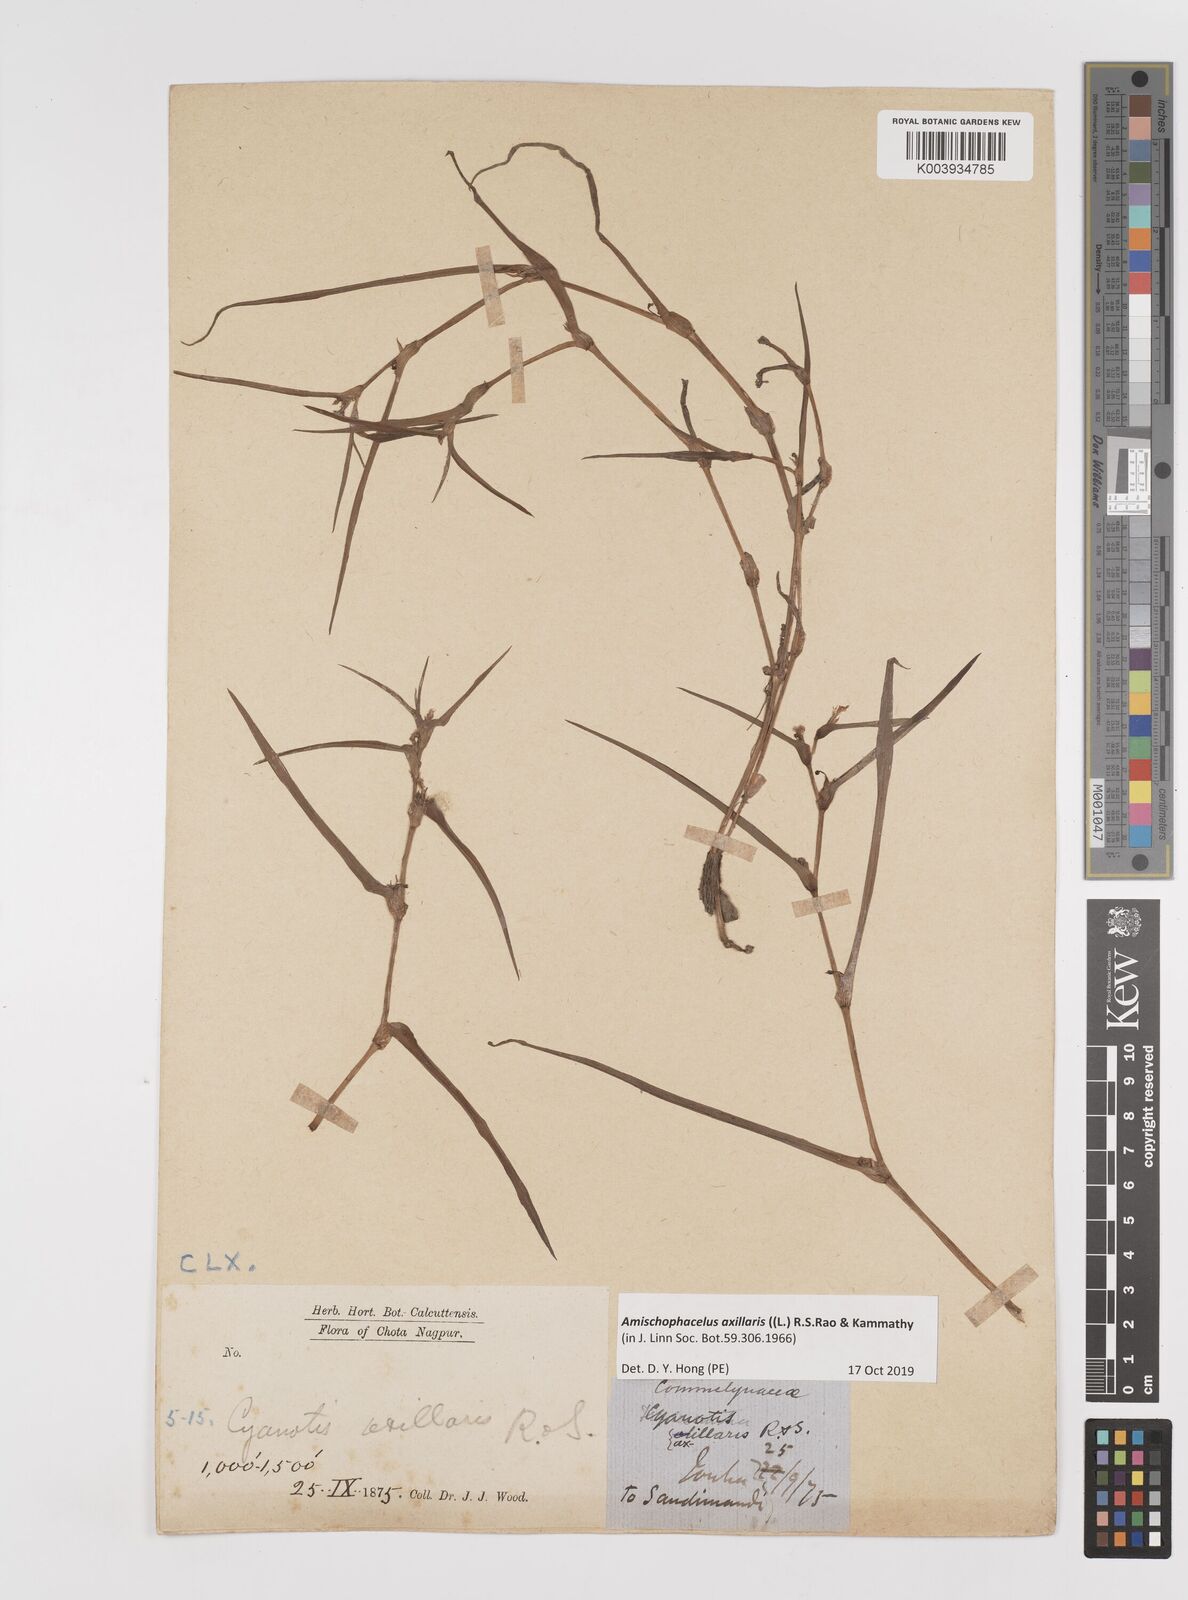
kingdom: Plantae
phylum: Tracheophyta
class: Liliopsida
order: Commelinales
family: Commelinaceae
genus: Cyanotis
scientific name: Cyanotis axillaris
